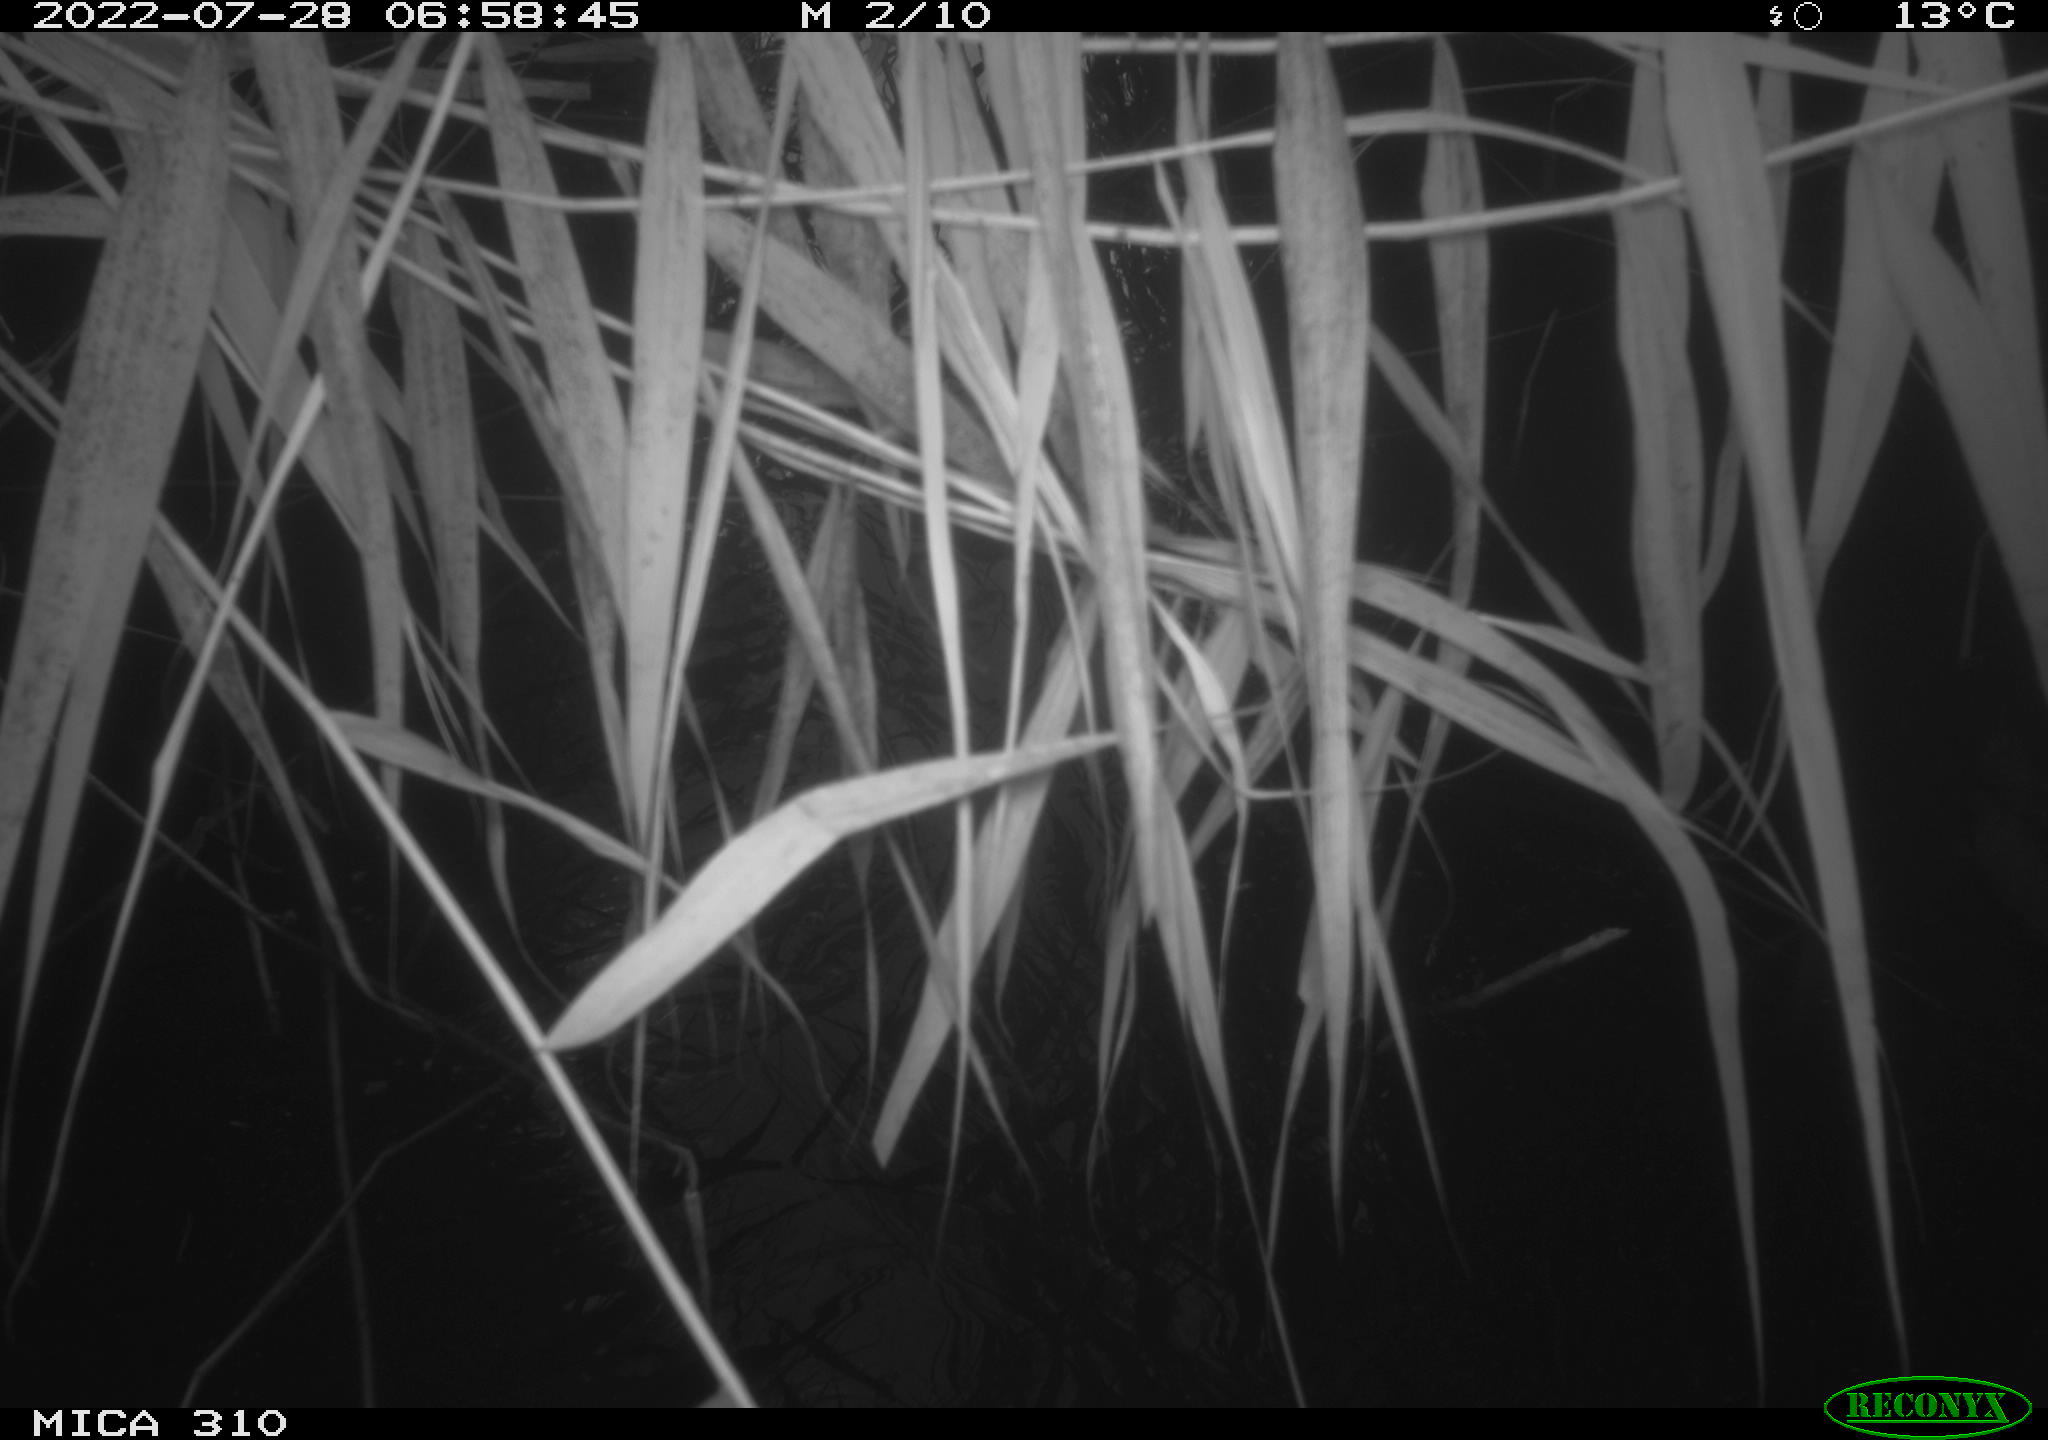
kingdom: Animalia
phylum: Chordata
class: Aves
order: Gruiformes
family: Rallidae
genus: Fulica
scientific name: Fulica atra
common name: Eurasian coot
